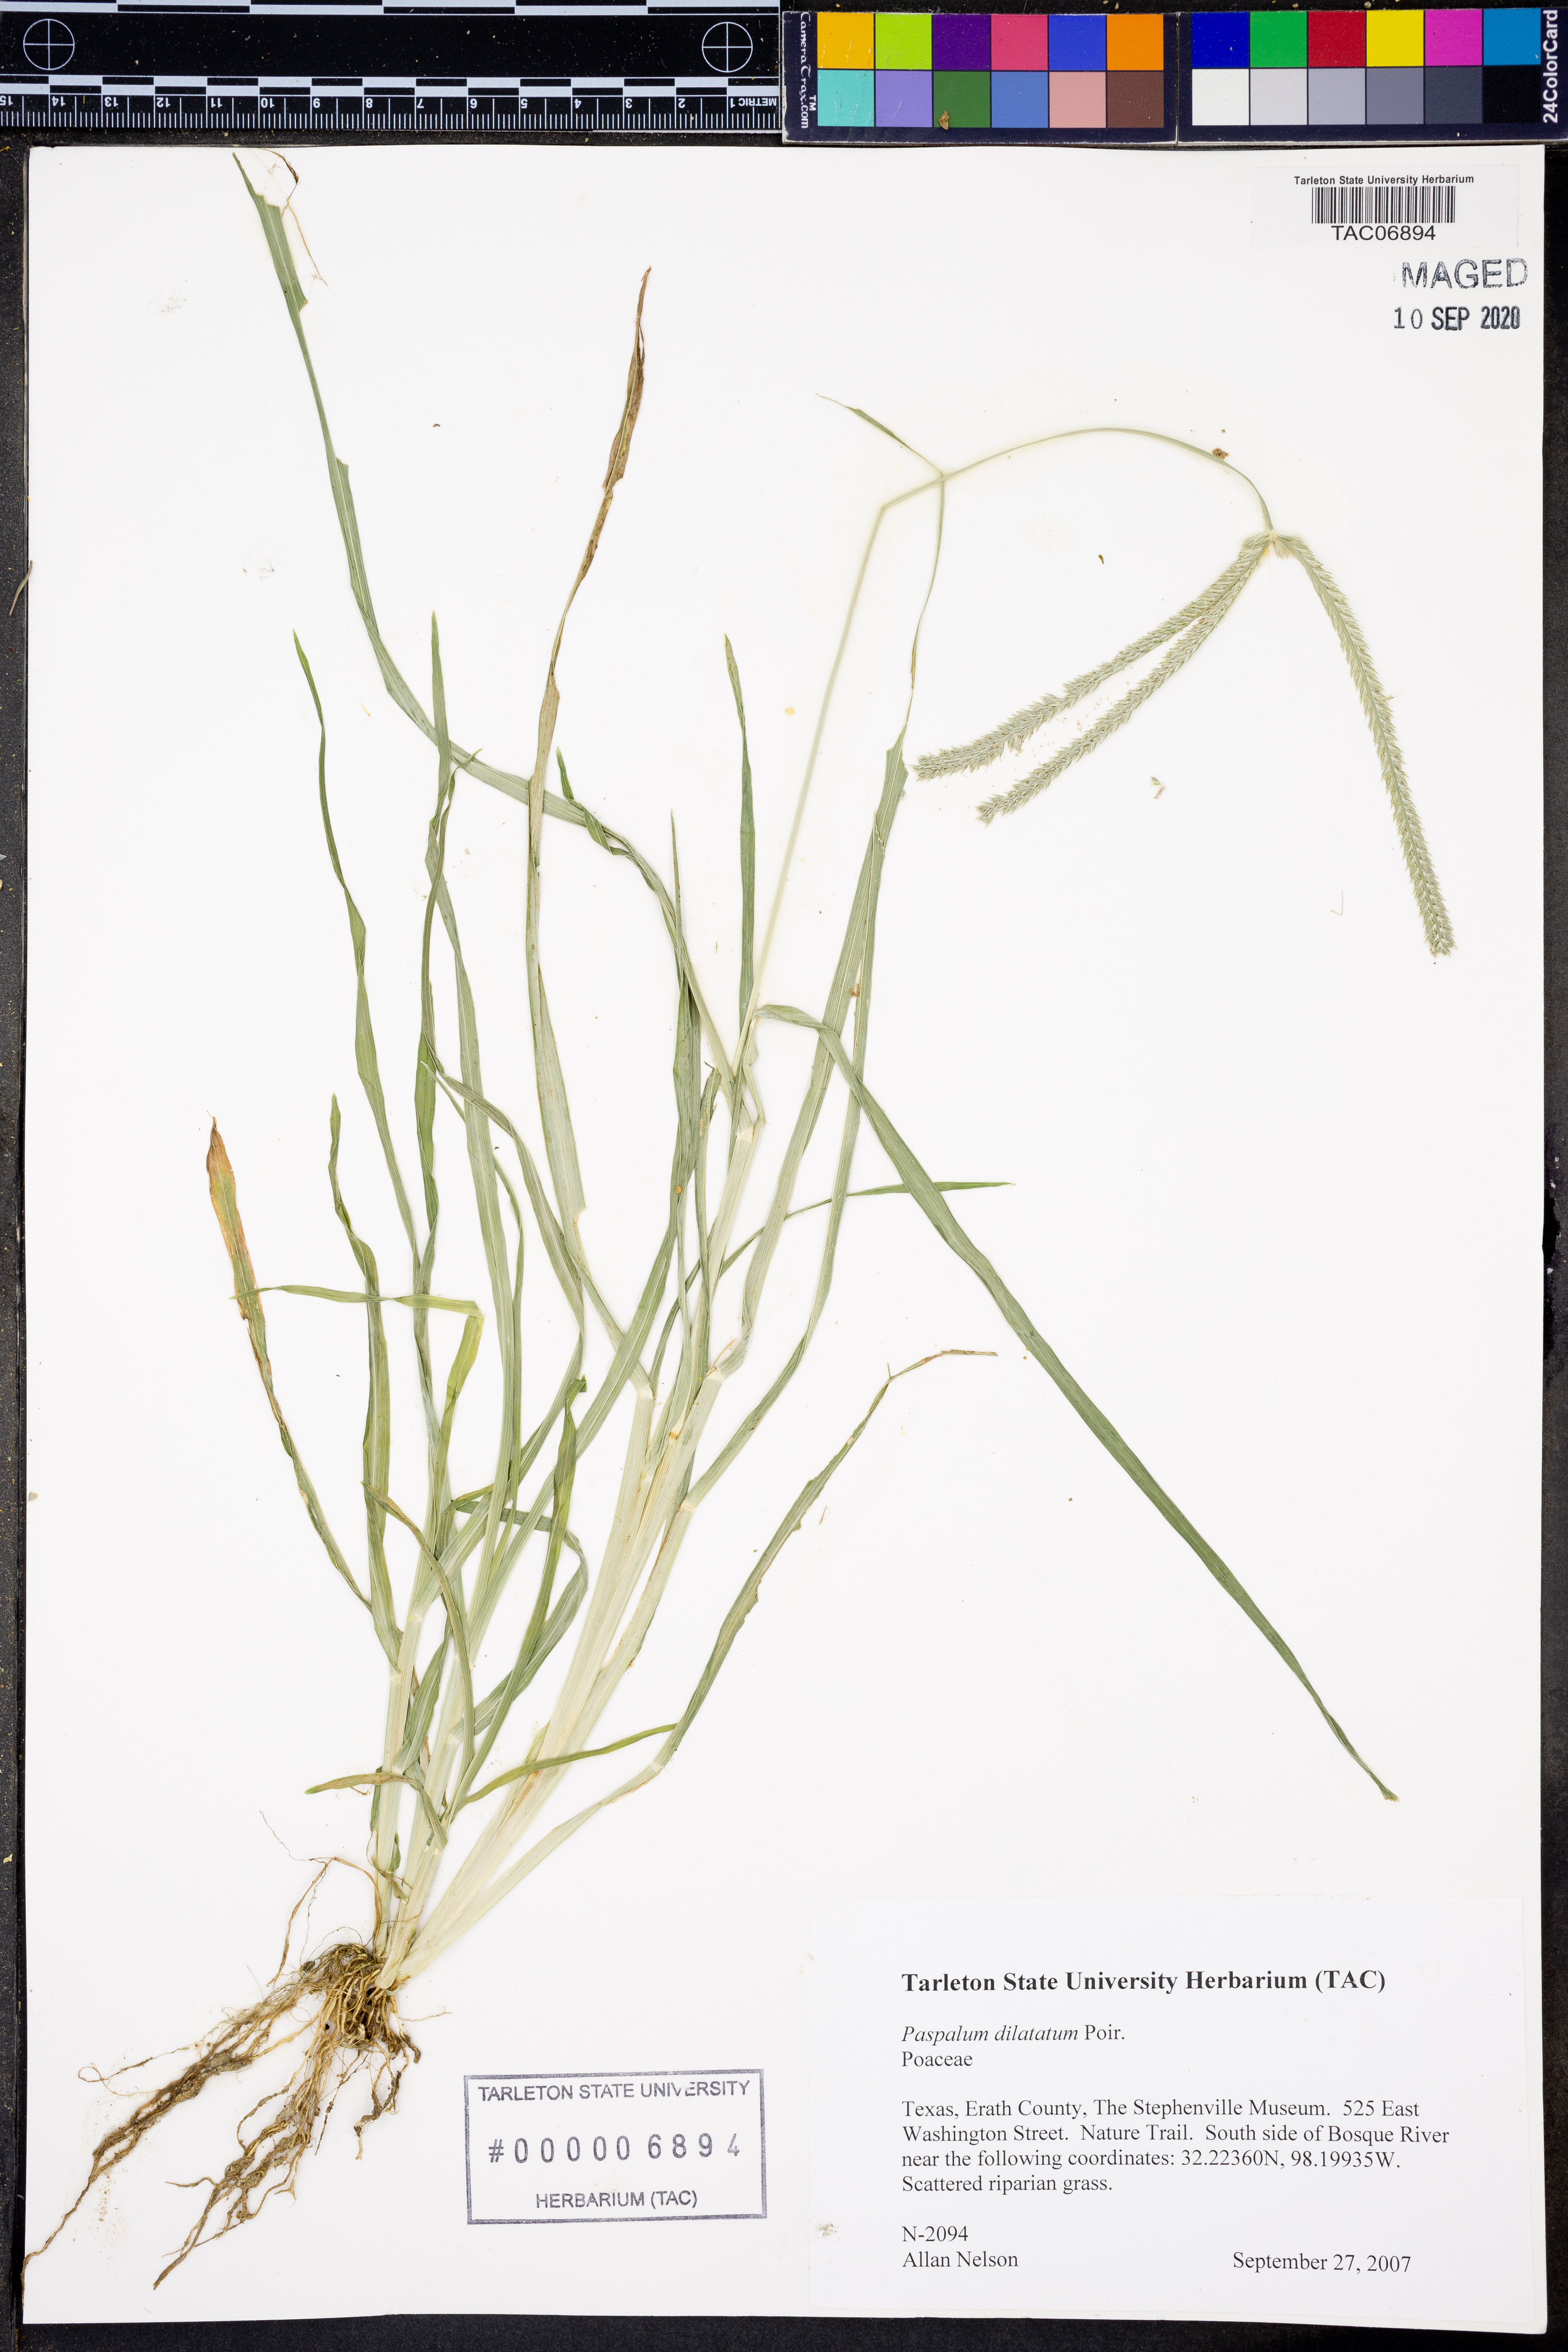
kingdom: Plantae
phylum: Tracheophyta
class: Liliopsida
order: Poales
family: Poaceae
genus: Paspalum
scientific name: Paspalum dilatatum
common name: Dallisgrass
